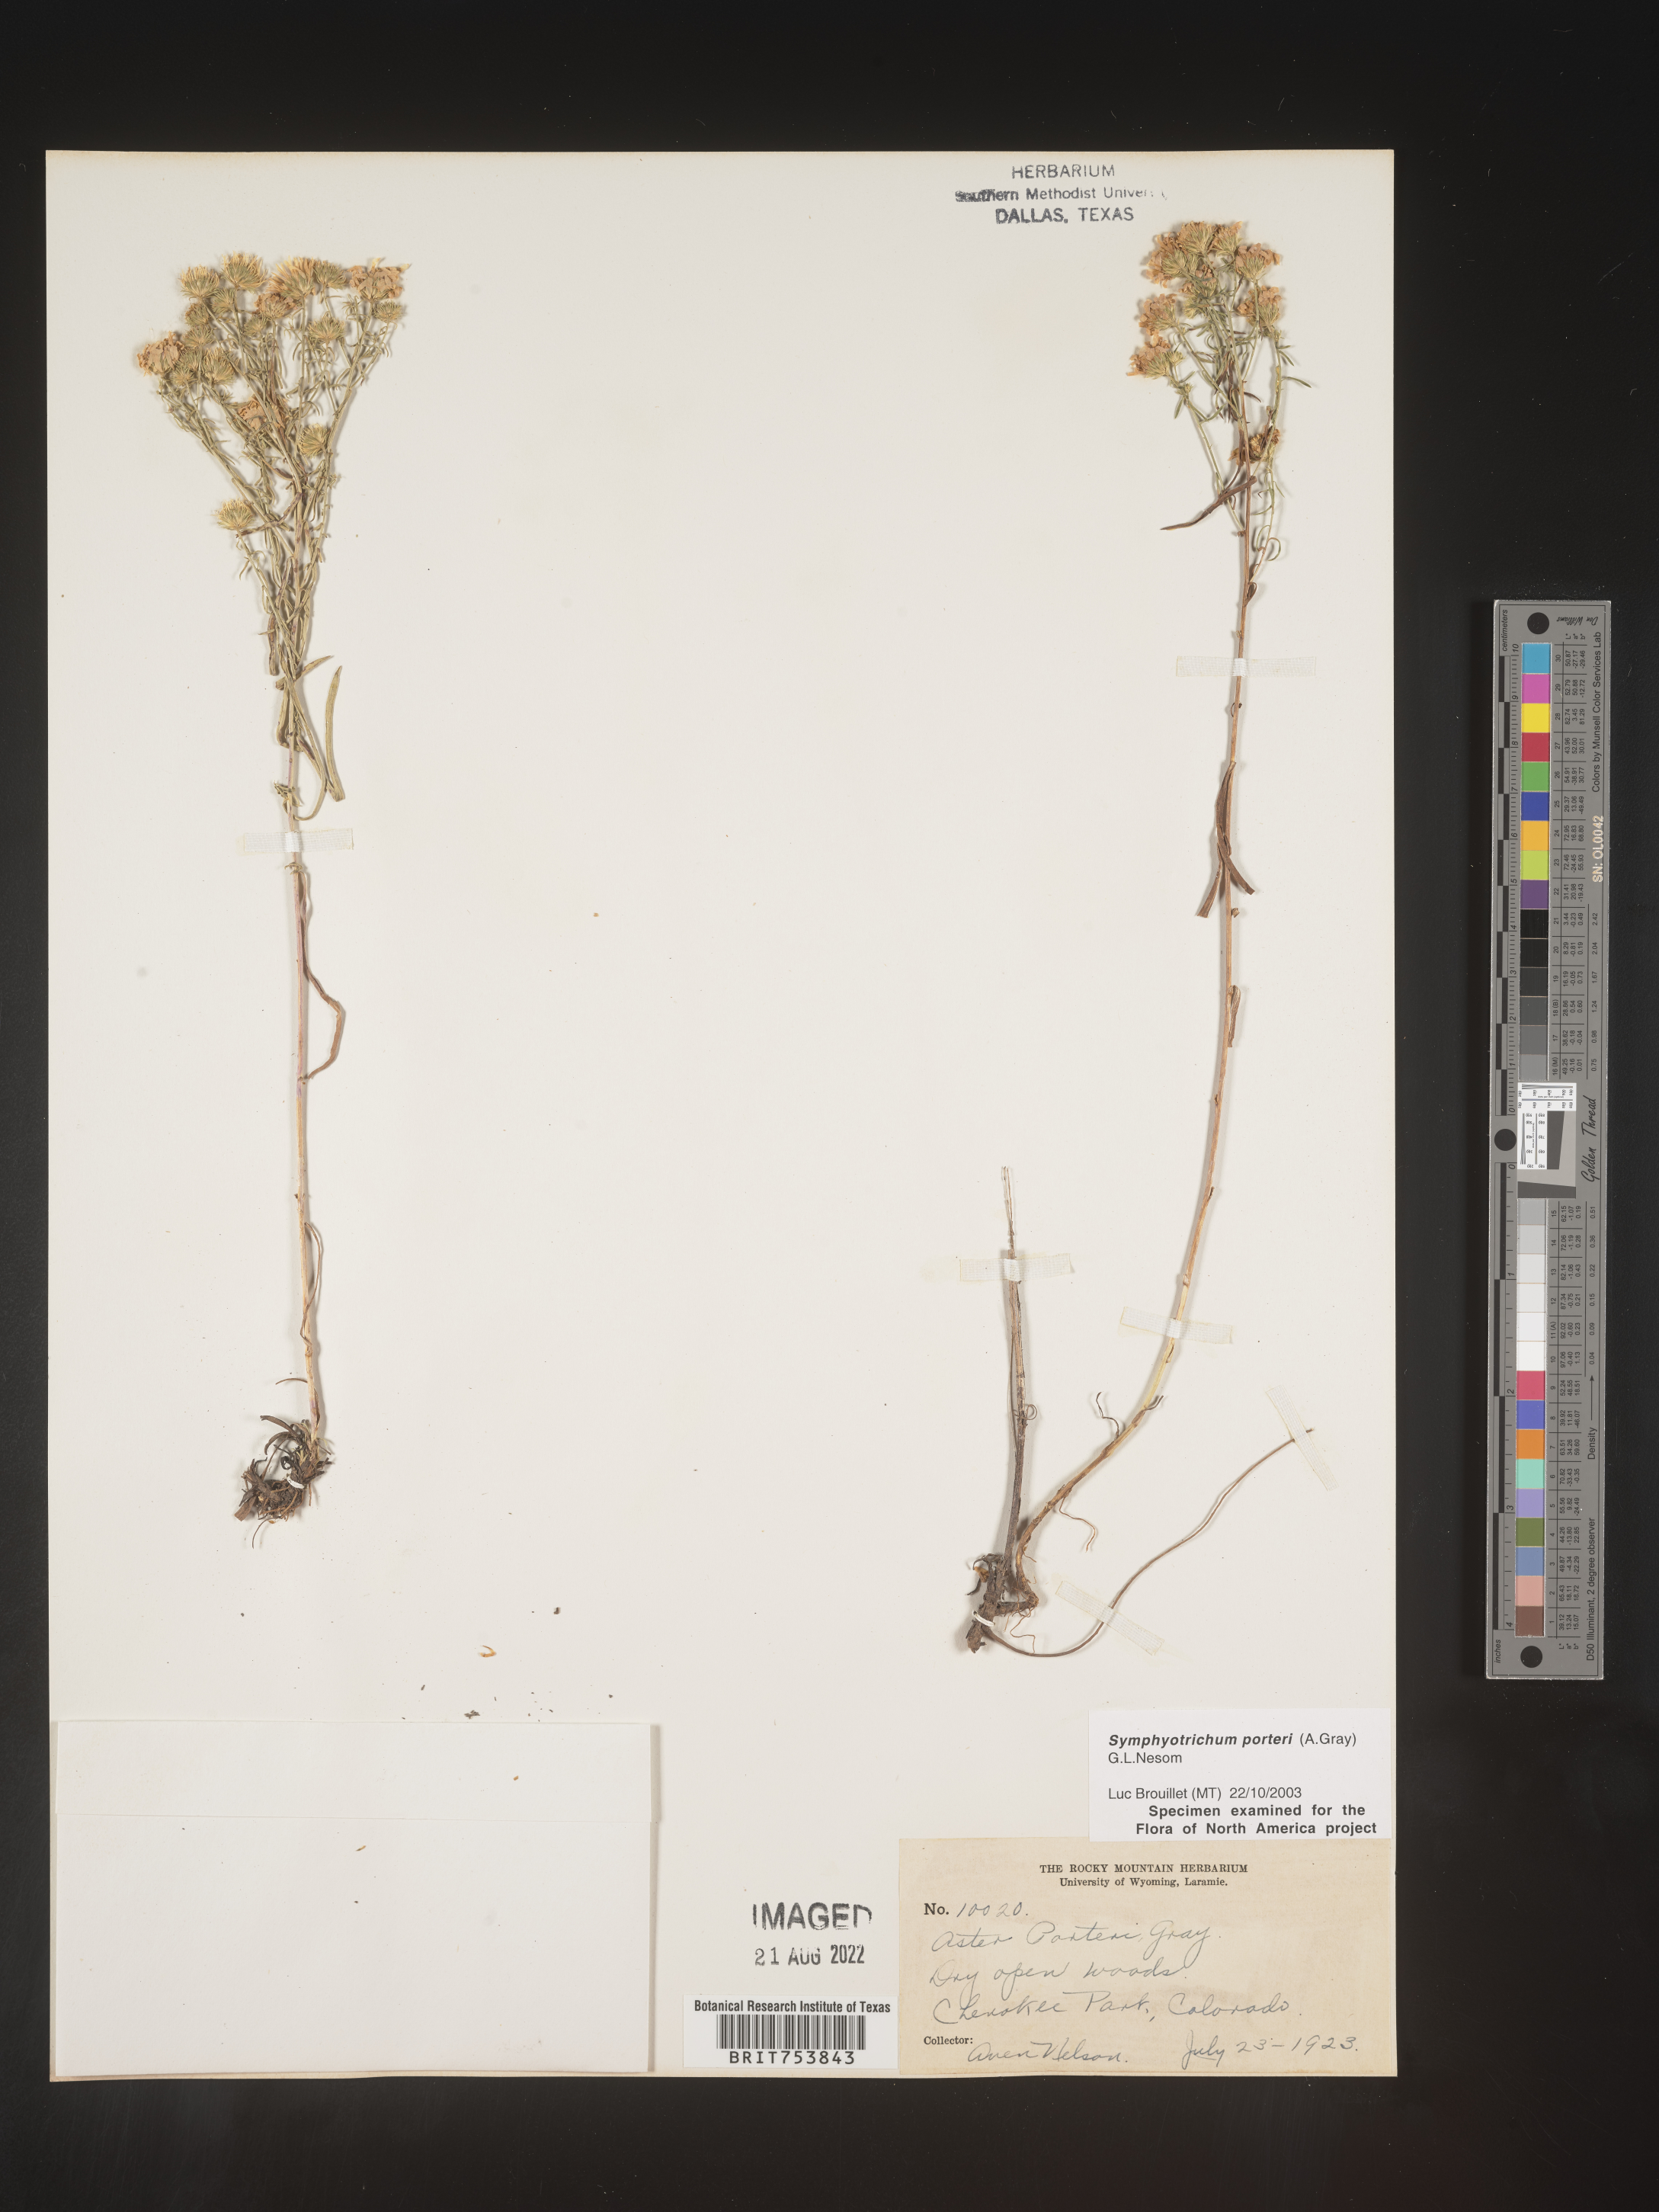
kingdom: Plantae
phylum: Tracheophyta
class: Magnoliopsida
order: Asterales
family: Asteraceae
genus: Symphyotrichum
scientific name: Symphyotrichum porteri
